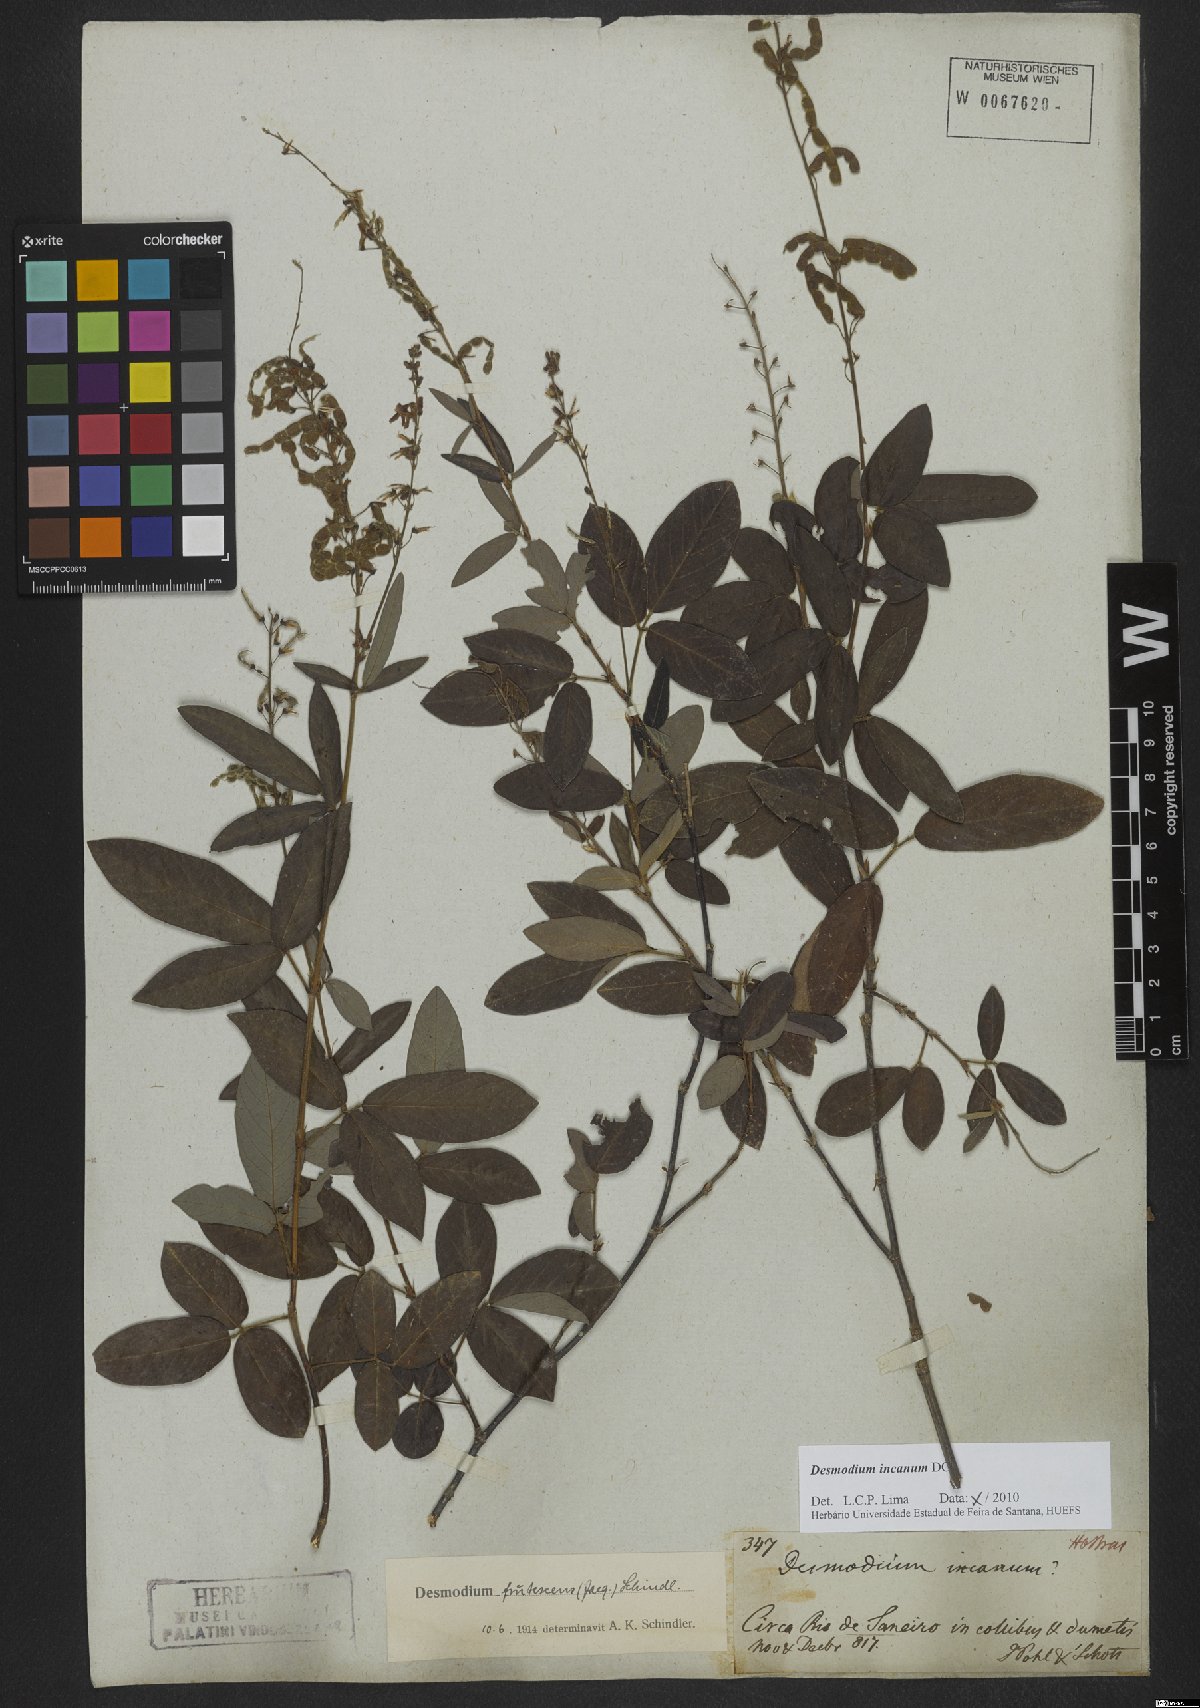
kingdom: Plantae
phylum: Tracheophyta
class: Magnoliopsida
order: Fabales
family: Fabaceae
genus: Desmodium
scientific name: Desmodium incanum
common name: Tickclover
